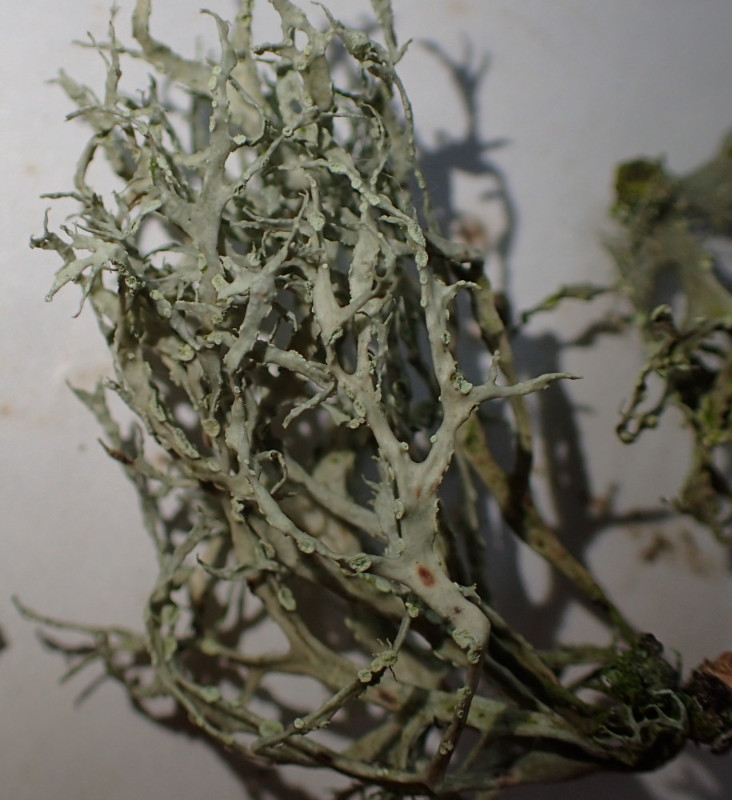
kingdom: Fungi
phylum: Ascomycota
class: Lecanoromycetes
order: Lecanorales
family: Ramalinaceae
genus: Ramalina
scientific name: Ramalina farinacea
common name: melet grenlav
